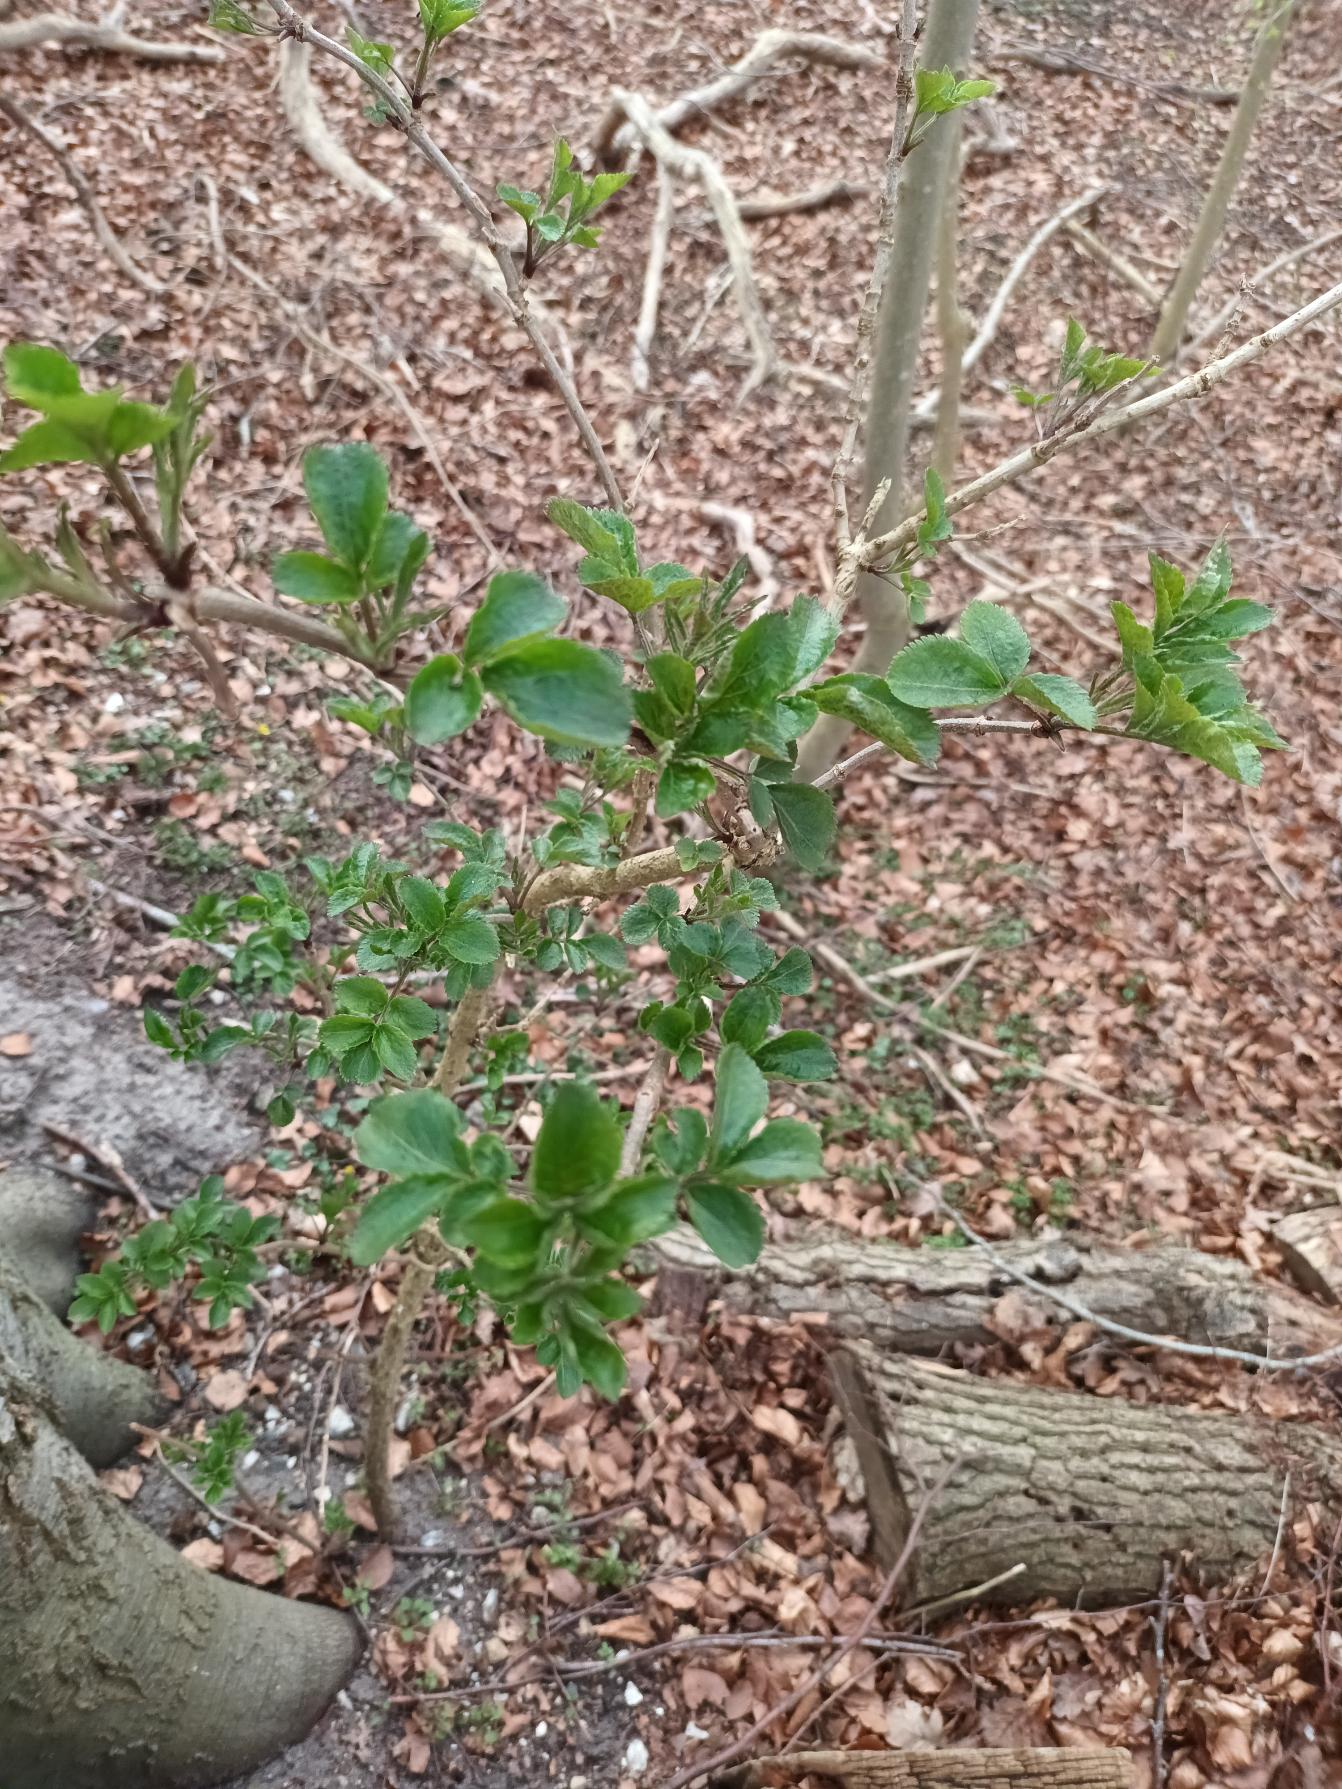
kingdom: Plantae
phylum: Tracheophyta
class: Magnoliopsida
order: Dipsacales
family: Viburnaceae
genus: Sambucus
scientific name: Sambucus nigra
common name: Almindelig hyld
